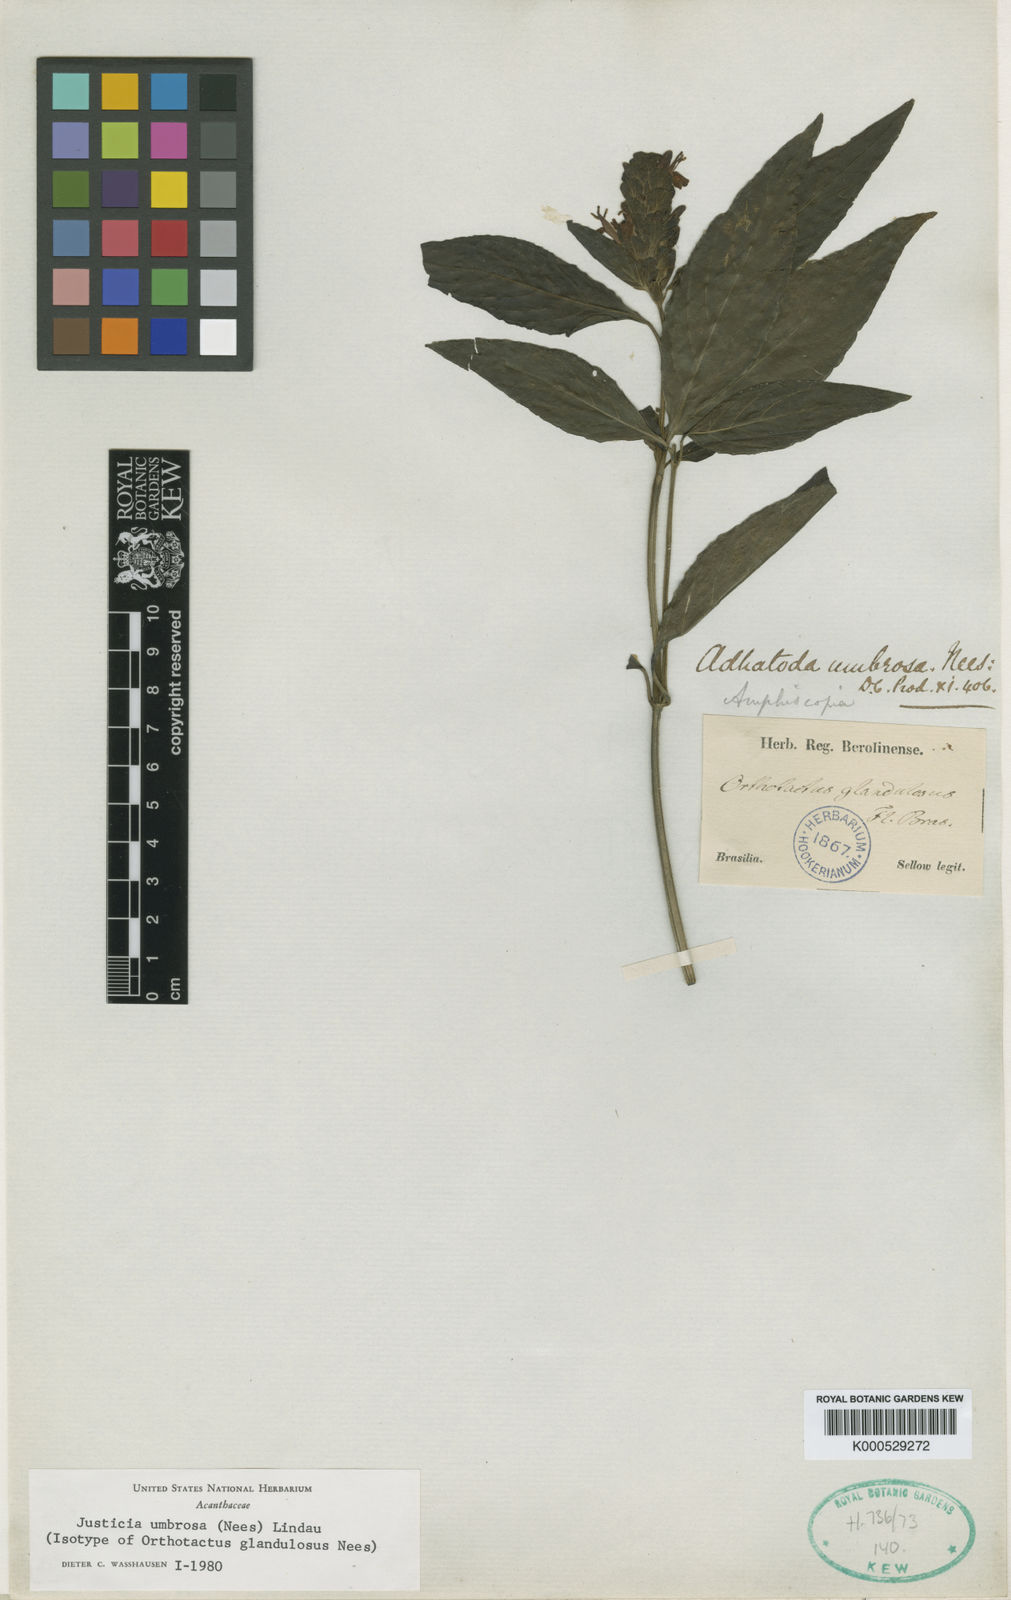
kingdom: Plantae
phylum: Tracheophyta
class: Magnoliopsida
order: Lamiales
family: Acanthaceae
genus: Poikilacanthus
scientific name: Poikilacanthus glandulosus
